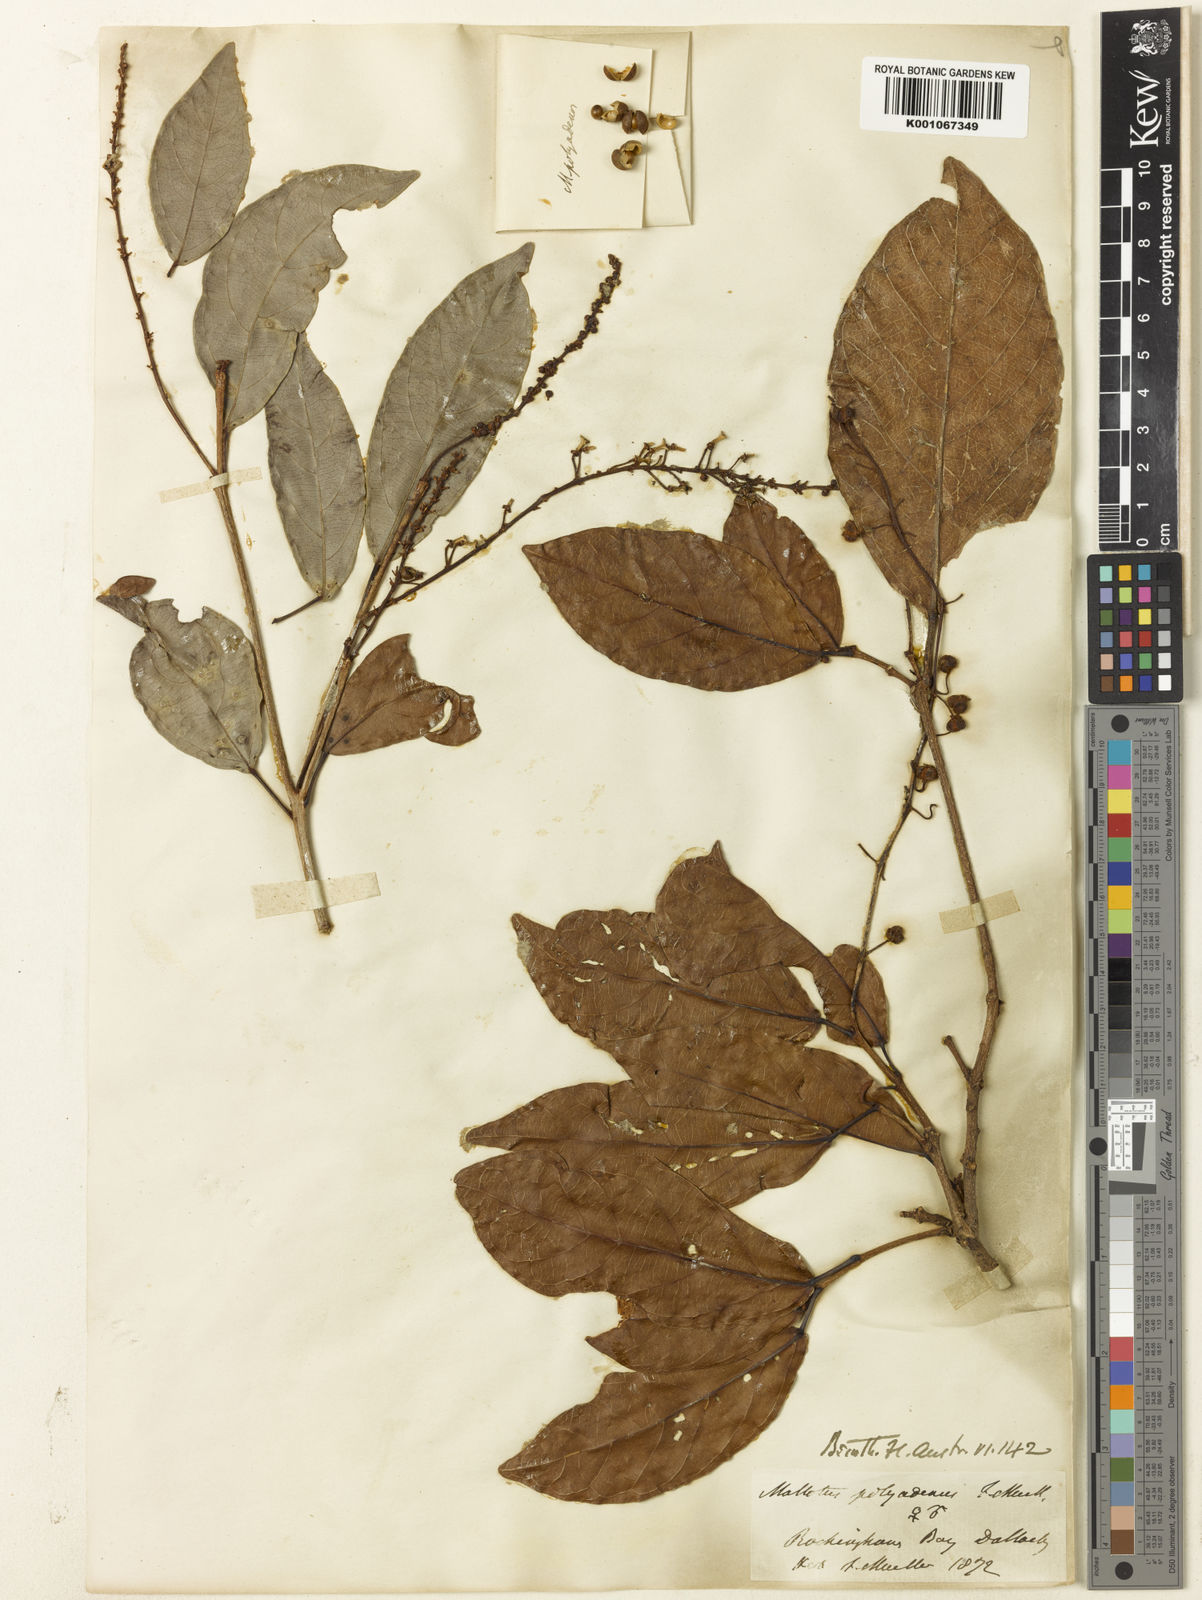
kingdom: Plantae
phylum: Tracheophyta
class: Magnoliopsida
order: Malpighiales
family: Euphorbiaceae
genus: Mallotus
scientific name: Mallotus polyadenos
